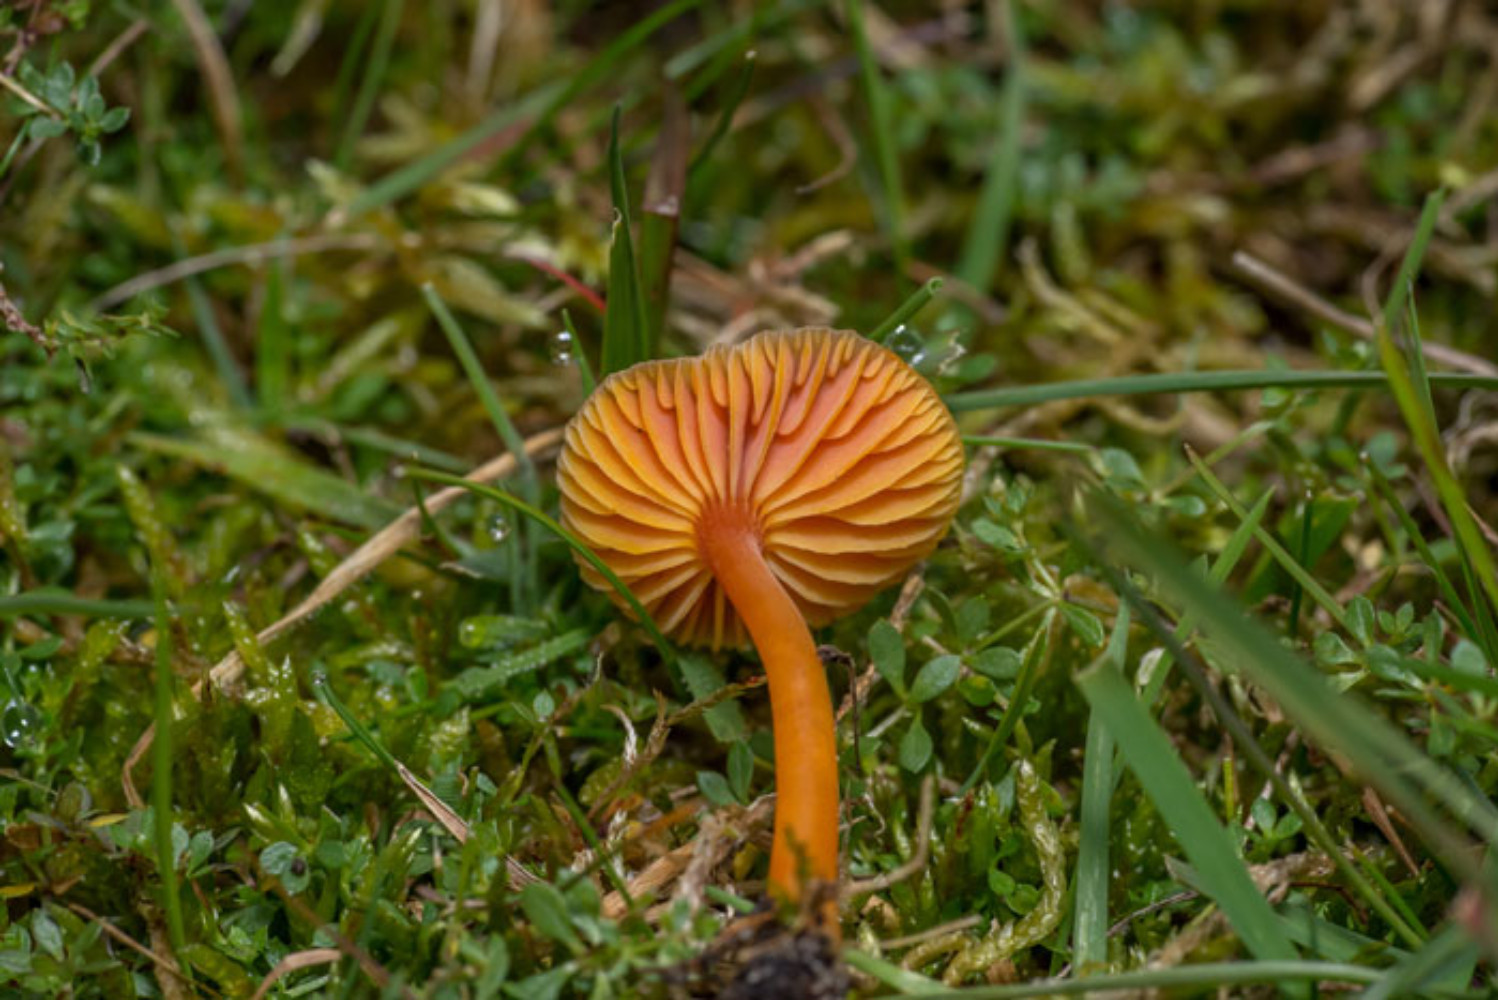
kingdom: Fungi
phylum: Basidiomycota
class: Agaricomycetes
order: Agaricales
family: Hygrophoraceae
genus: Hygrocybe
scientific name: Hygrocybe miniata
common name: mønje-vokshat
